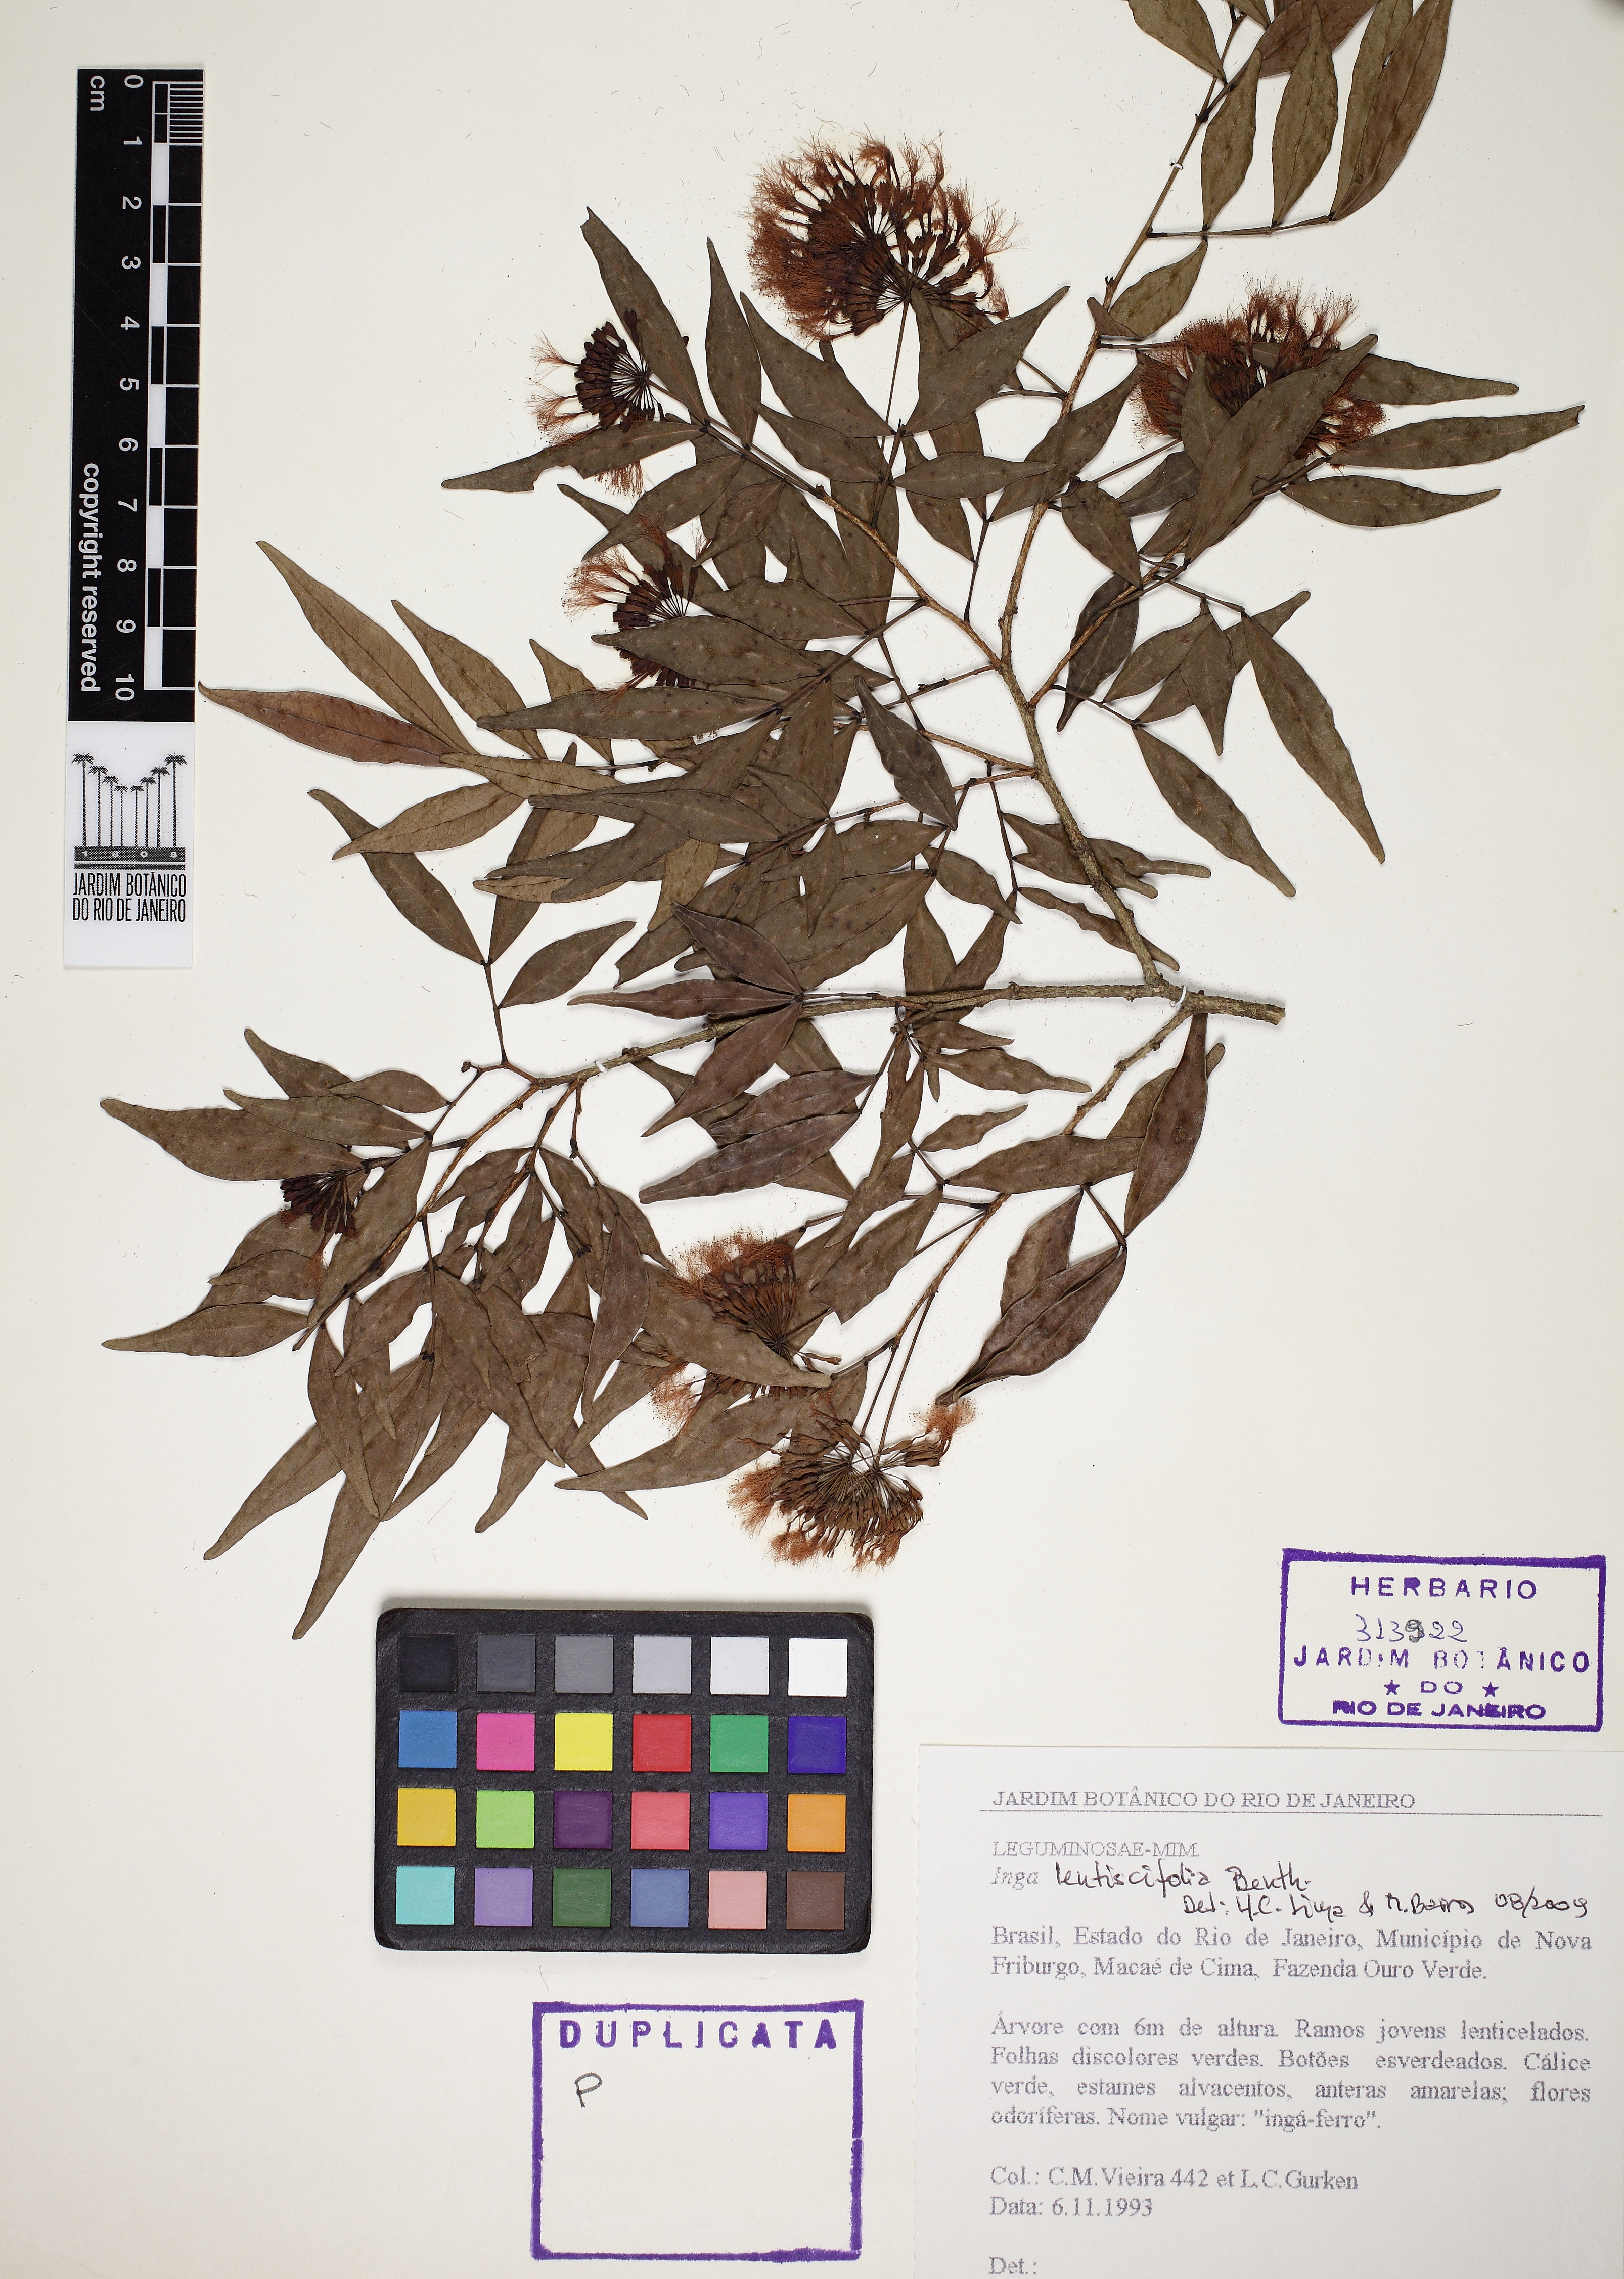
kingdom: Plantae
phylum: Tracheophyta
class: Magnoliopsida
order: Fabales
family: Fabaceae
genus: Inga
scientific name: Inga lenticellata
